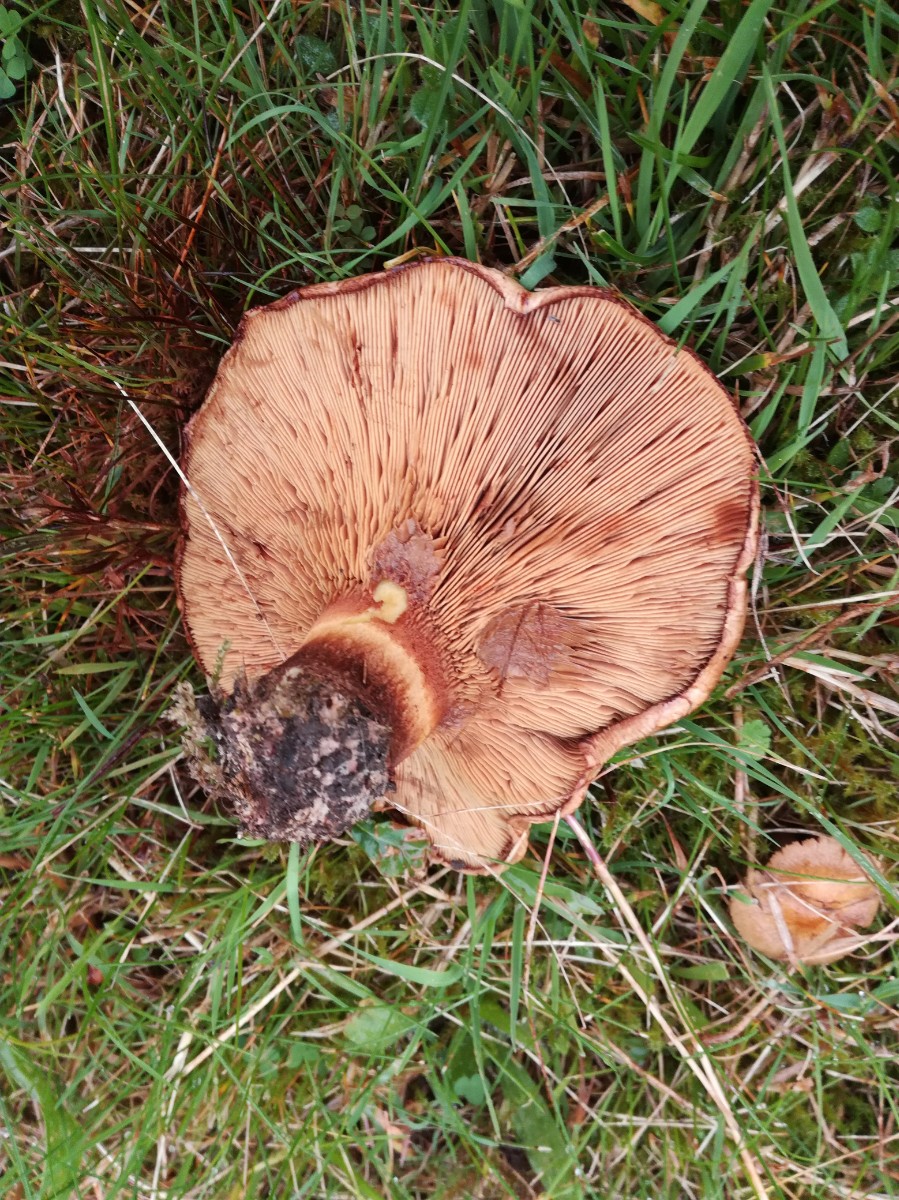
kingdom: Fungi
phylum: Basidiomycota
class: Agaricomycetes
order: Boletales
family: Paxillaceae
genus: Paxillus
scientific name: Paxillus
